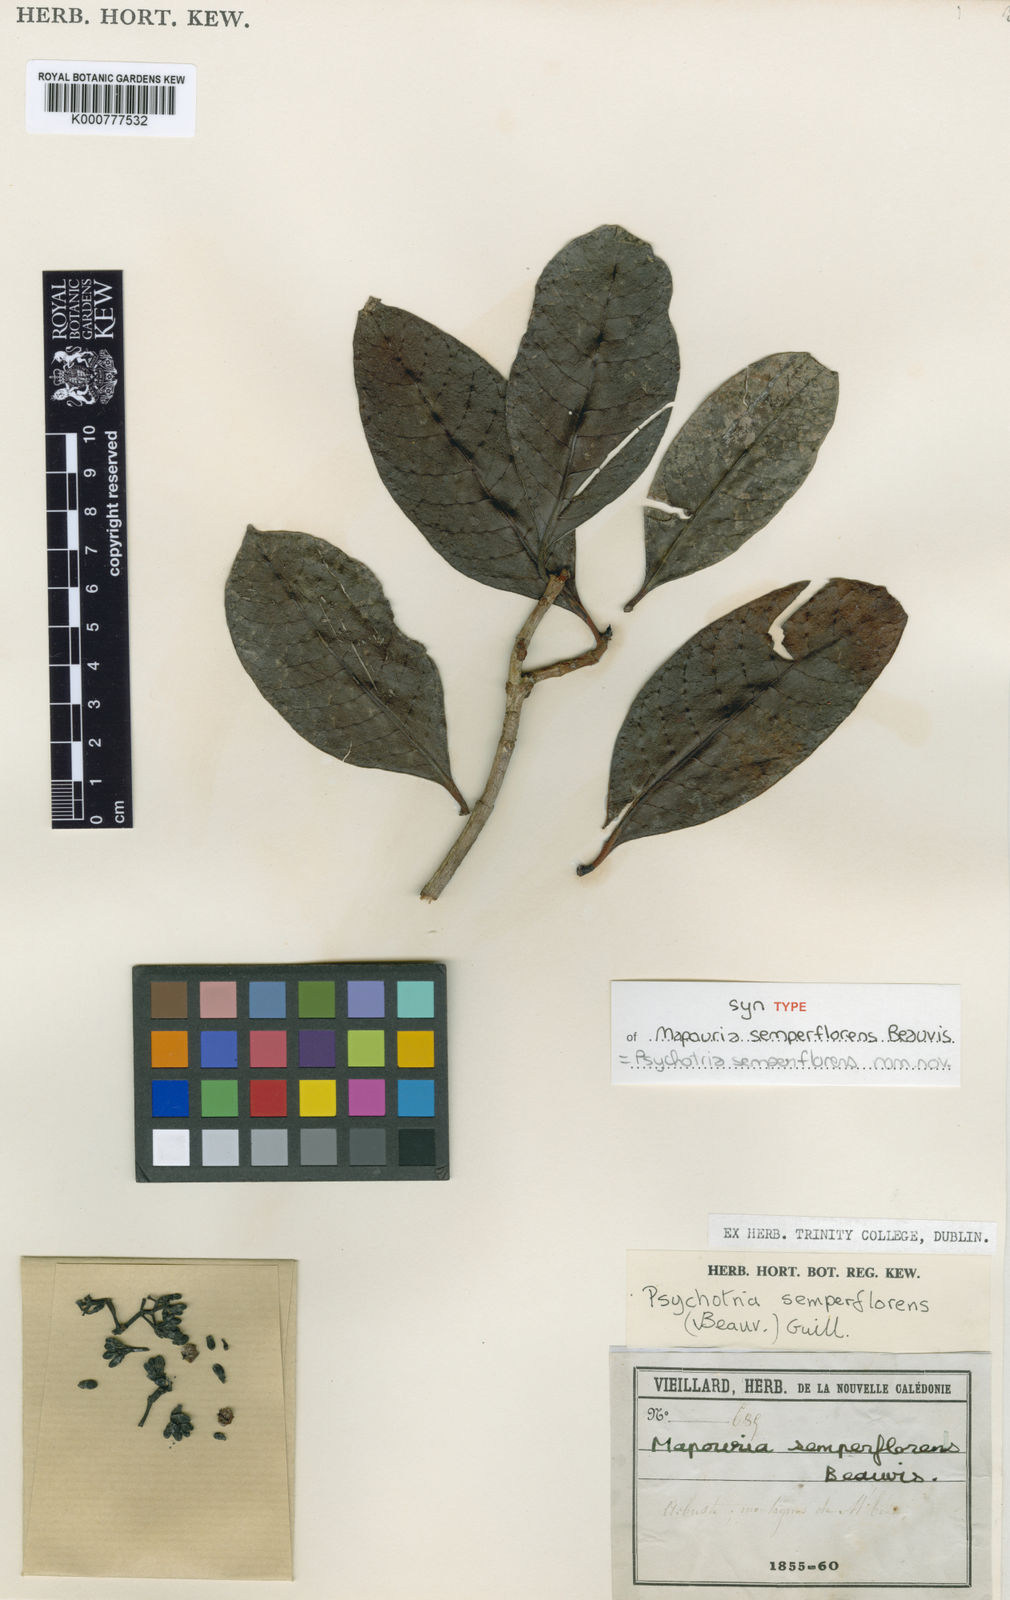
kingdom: Plantae
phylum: Tracheophyta
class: Magnoliopsida
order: Gentianales
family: Rubiaceae
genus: Psychotria
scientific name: Psychotria
